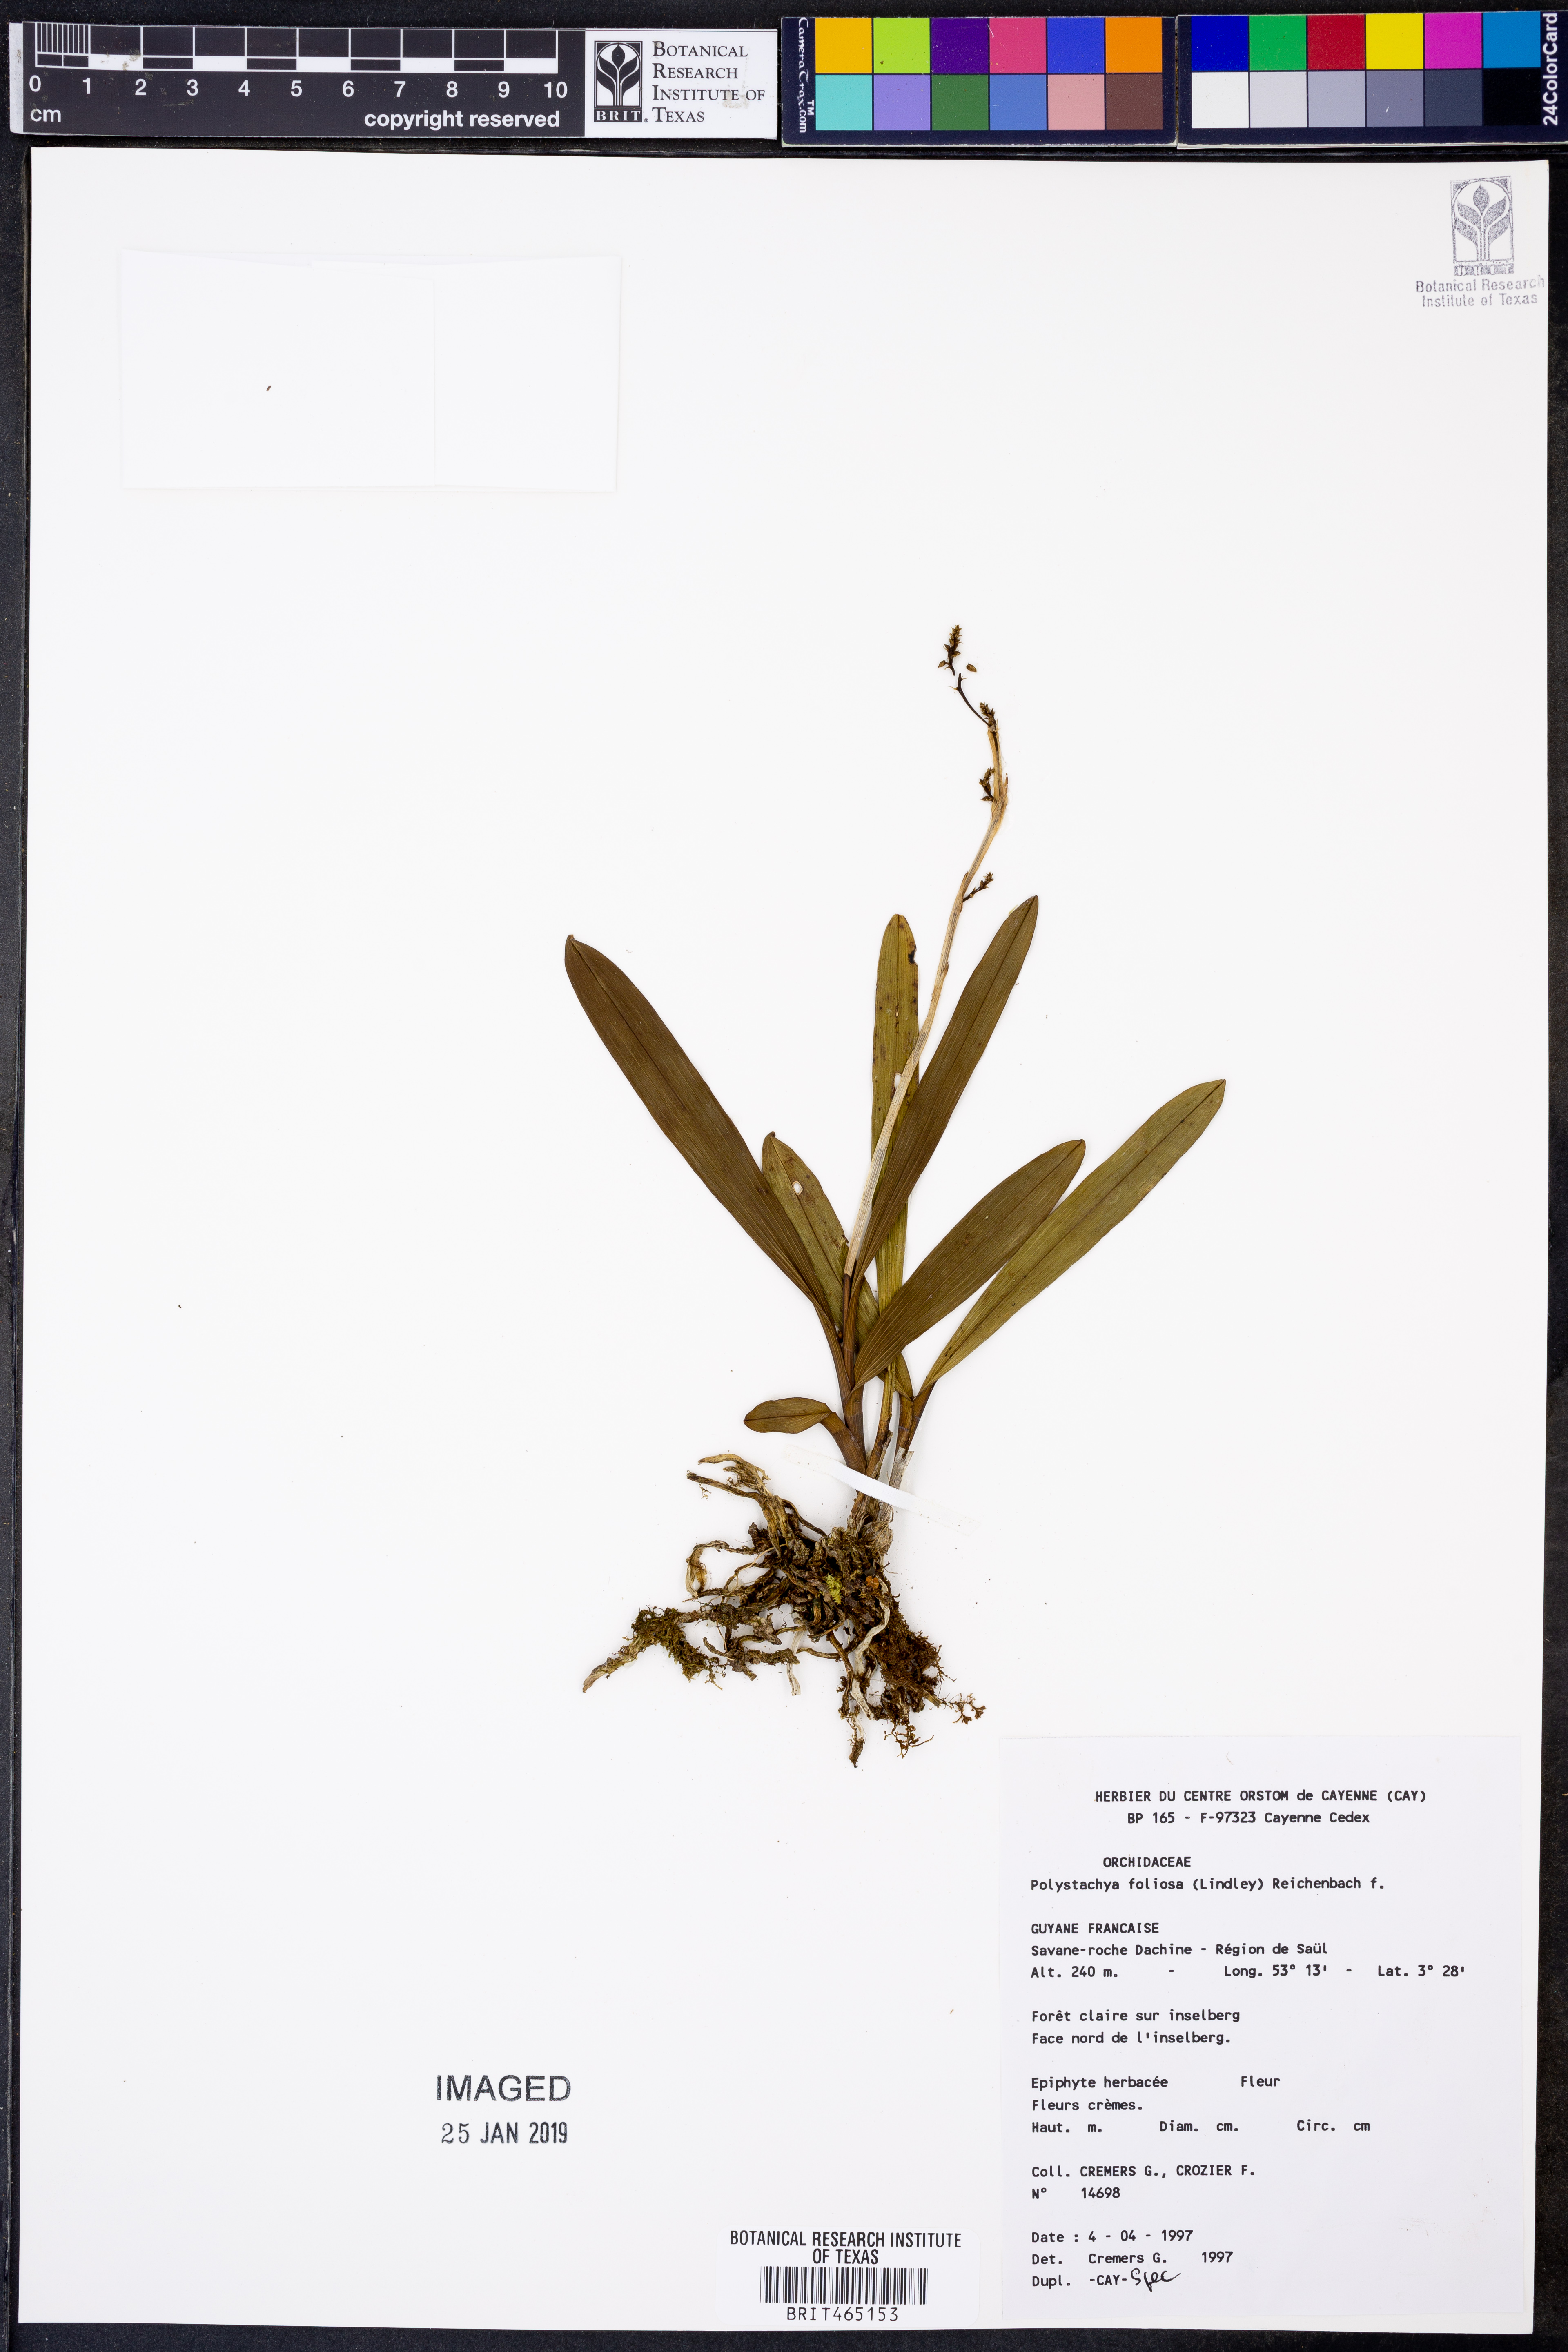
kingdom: Plantae
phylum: Tracheophyta
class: Liliopsida
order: Asparagales
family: Orchidaceae
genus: Polystachya
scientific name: Polystachya foliosa
